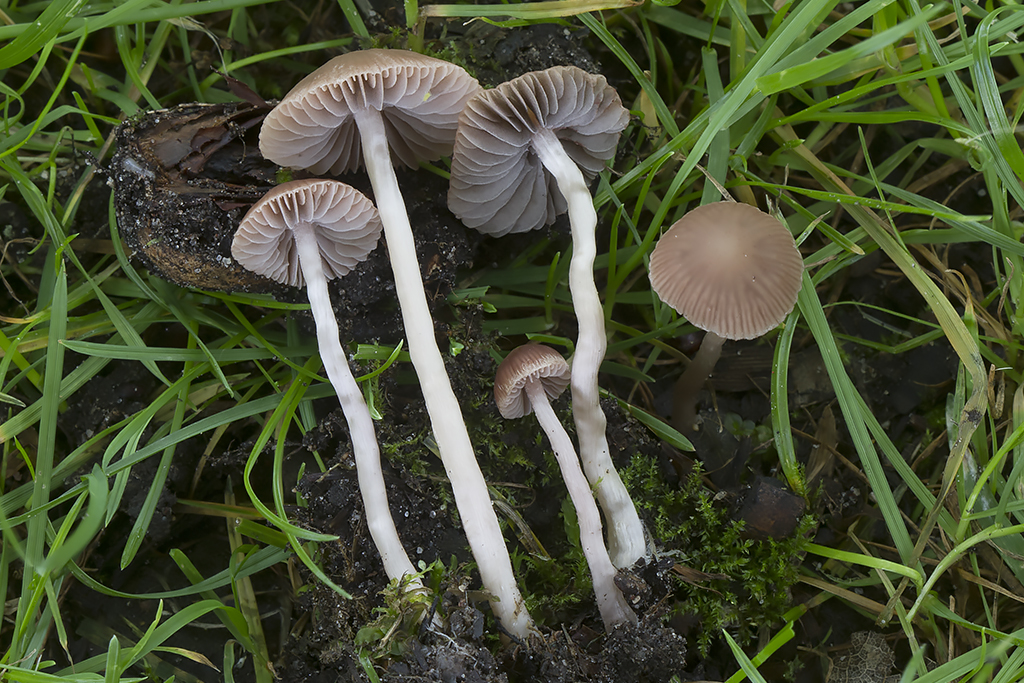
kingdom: Fungi
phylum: Basidiomycota
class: Agaricomycetes
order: Agaricales
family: Psathyrellaceae
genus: Psathyrella
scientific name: Psathyrella lutensis
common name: hjulspor-mørkhat
